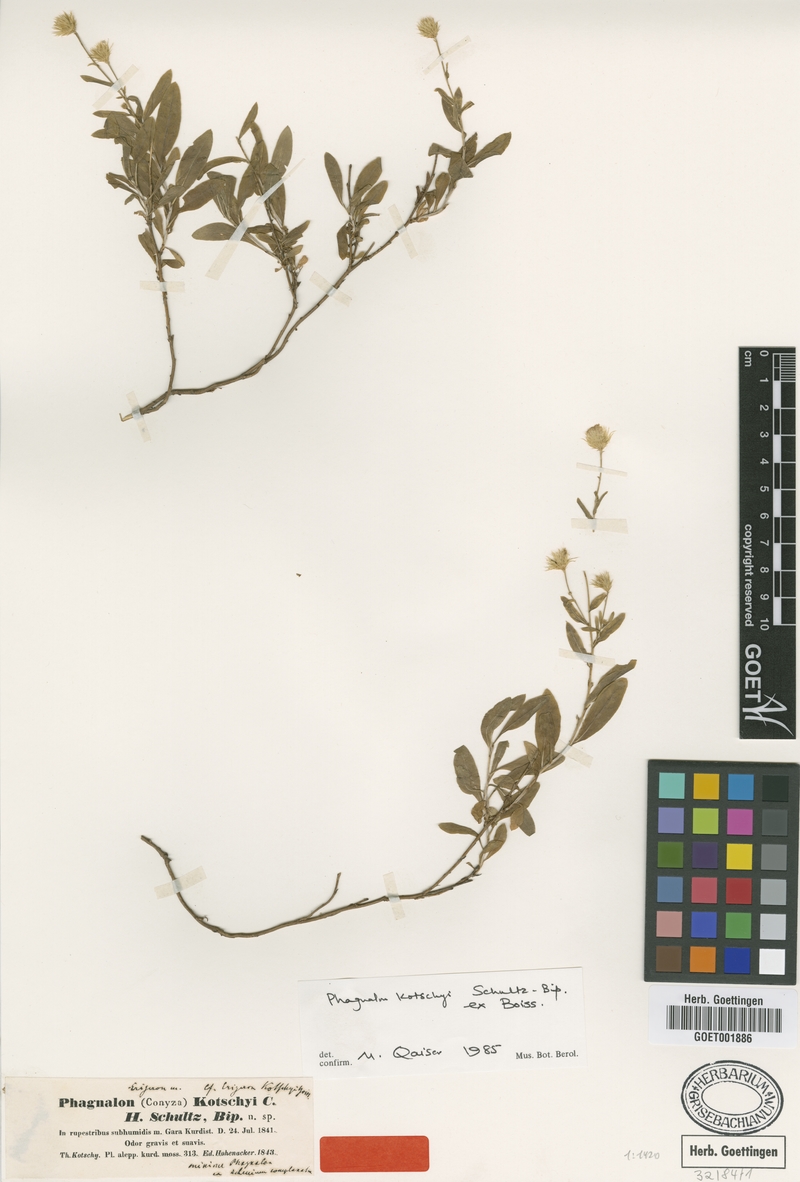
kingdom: Plantae
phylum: Tracheophyta
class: Magnoliopsida
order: Asterales
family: Asteraceae
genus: Phagnalon
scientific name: Phagnalon kotschyi
